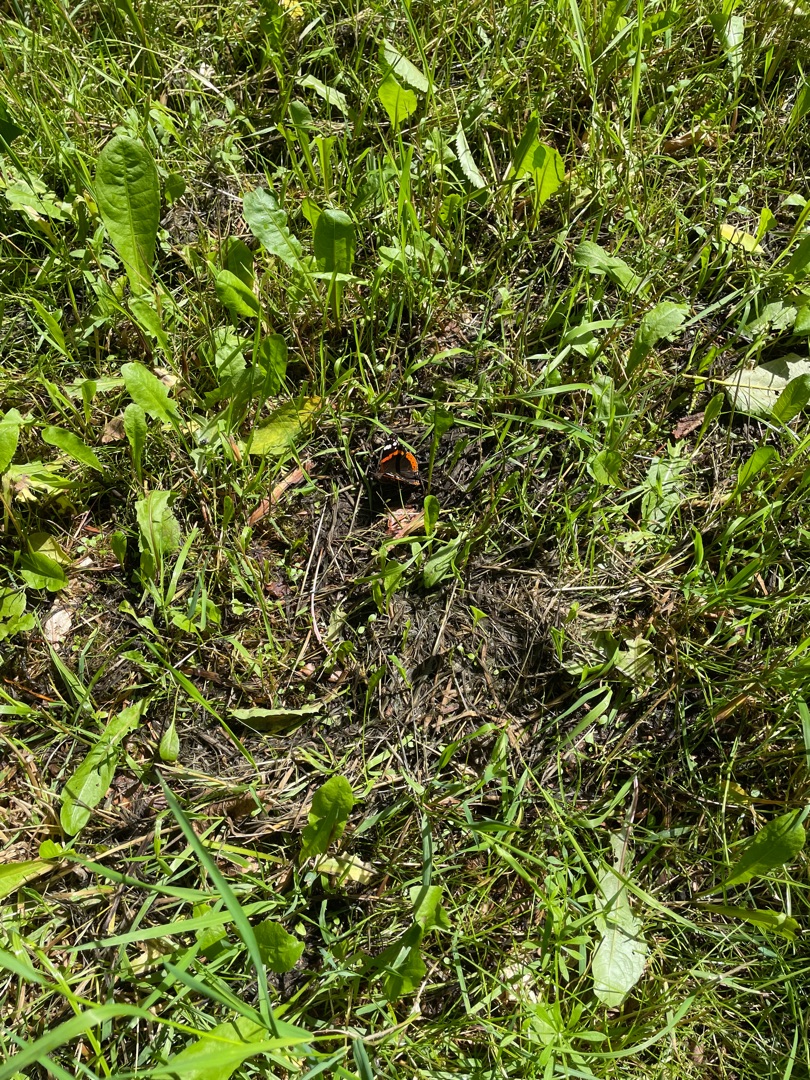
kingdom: Animalia
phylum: Arthropoda
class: Insecta
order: Lepidoptera
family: Nymphalidae
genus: Vanessa
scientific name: Vanessa atalanta
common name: Admiral
